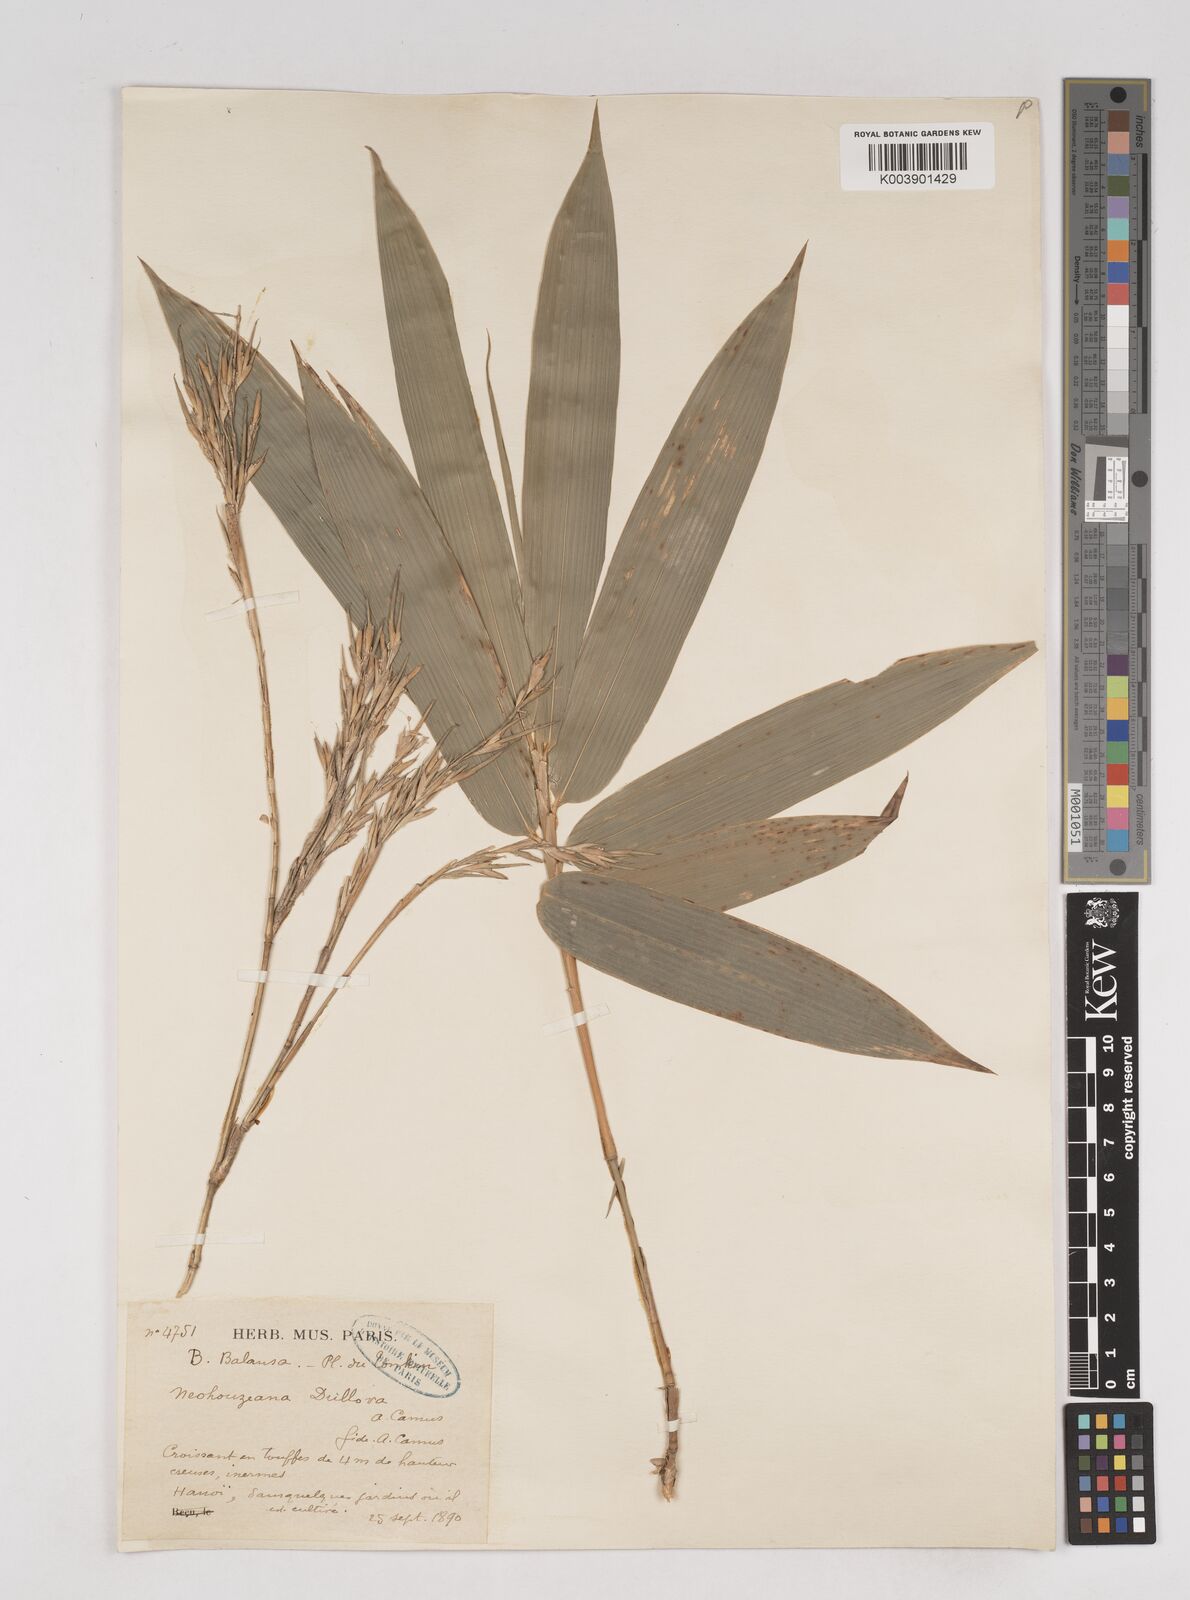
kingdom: Plantae
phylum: Tracheophyta
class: Liliopsida
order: Poales
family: Poaceae
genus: Schizostachyum
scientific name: Schizostachyum dullooa
